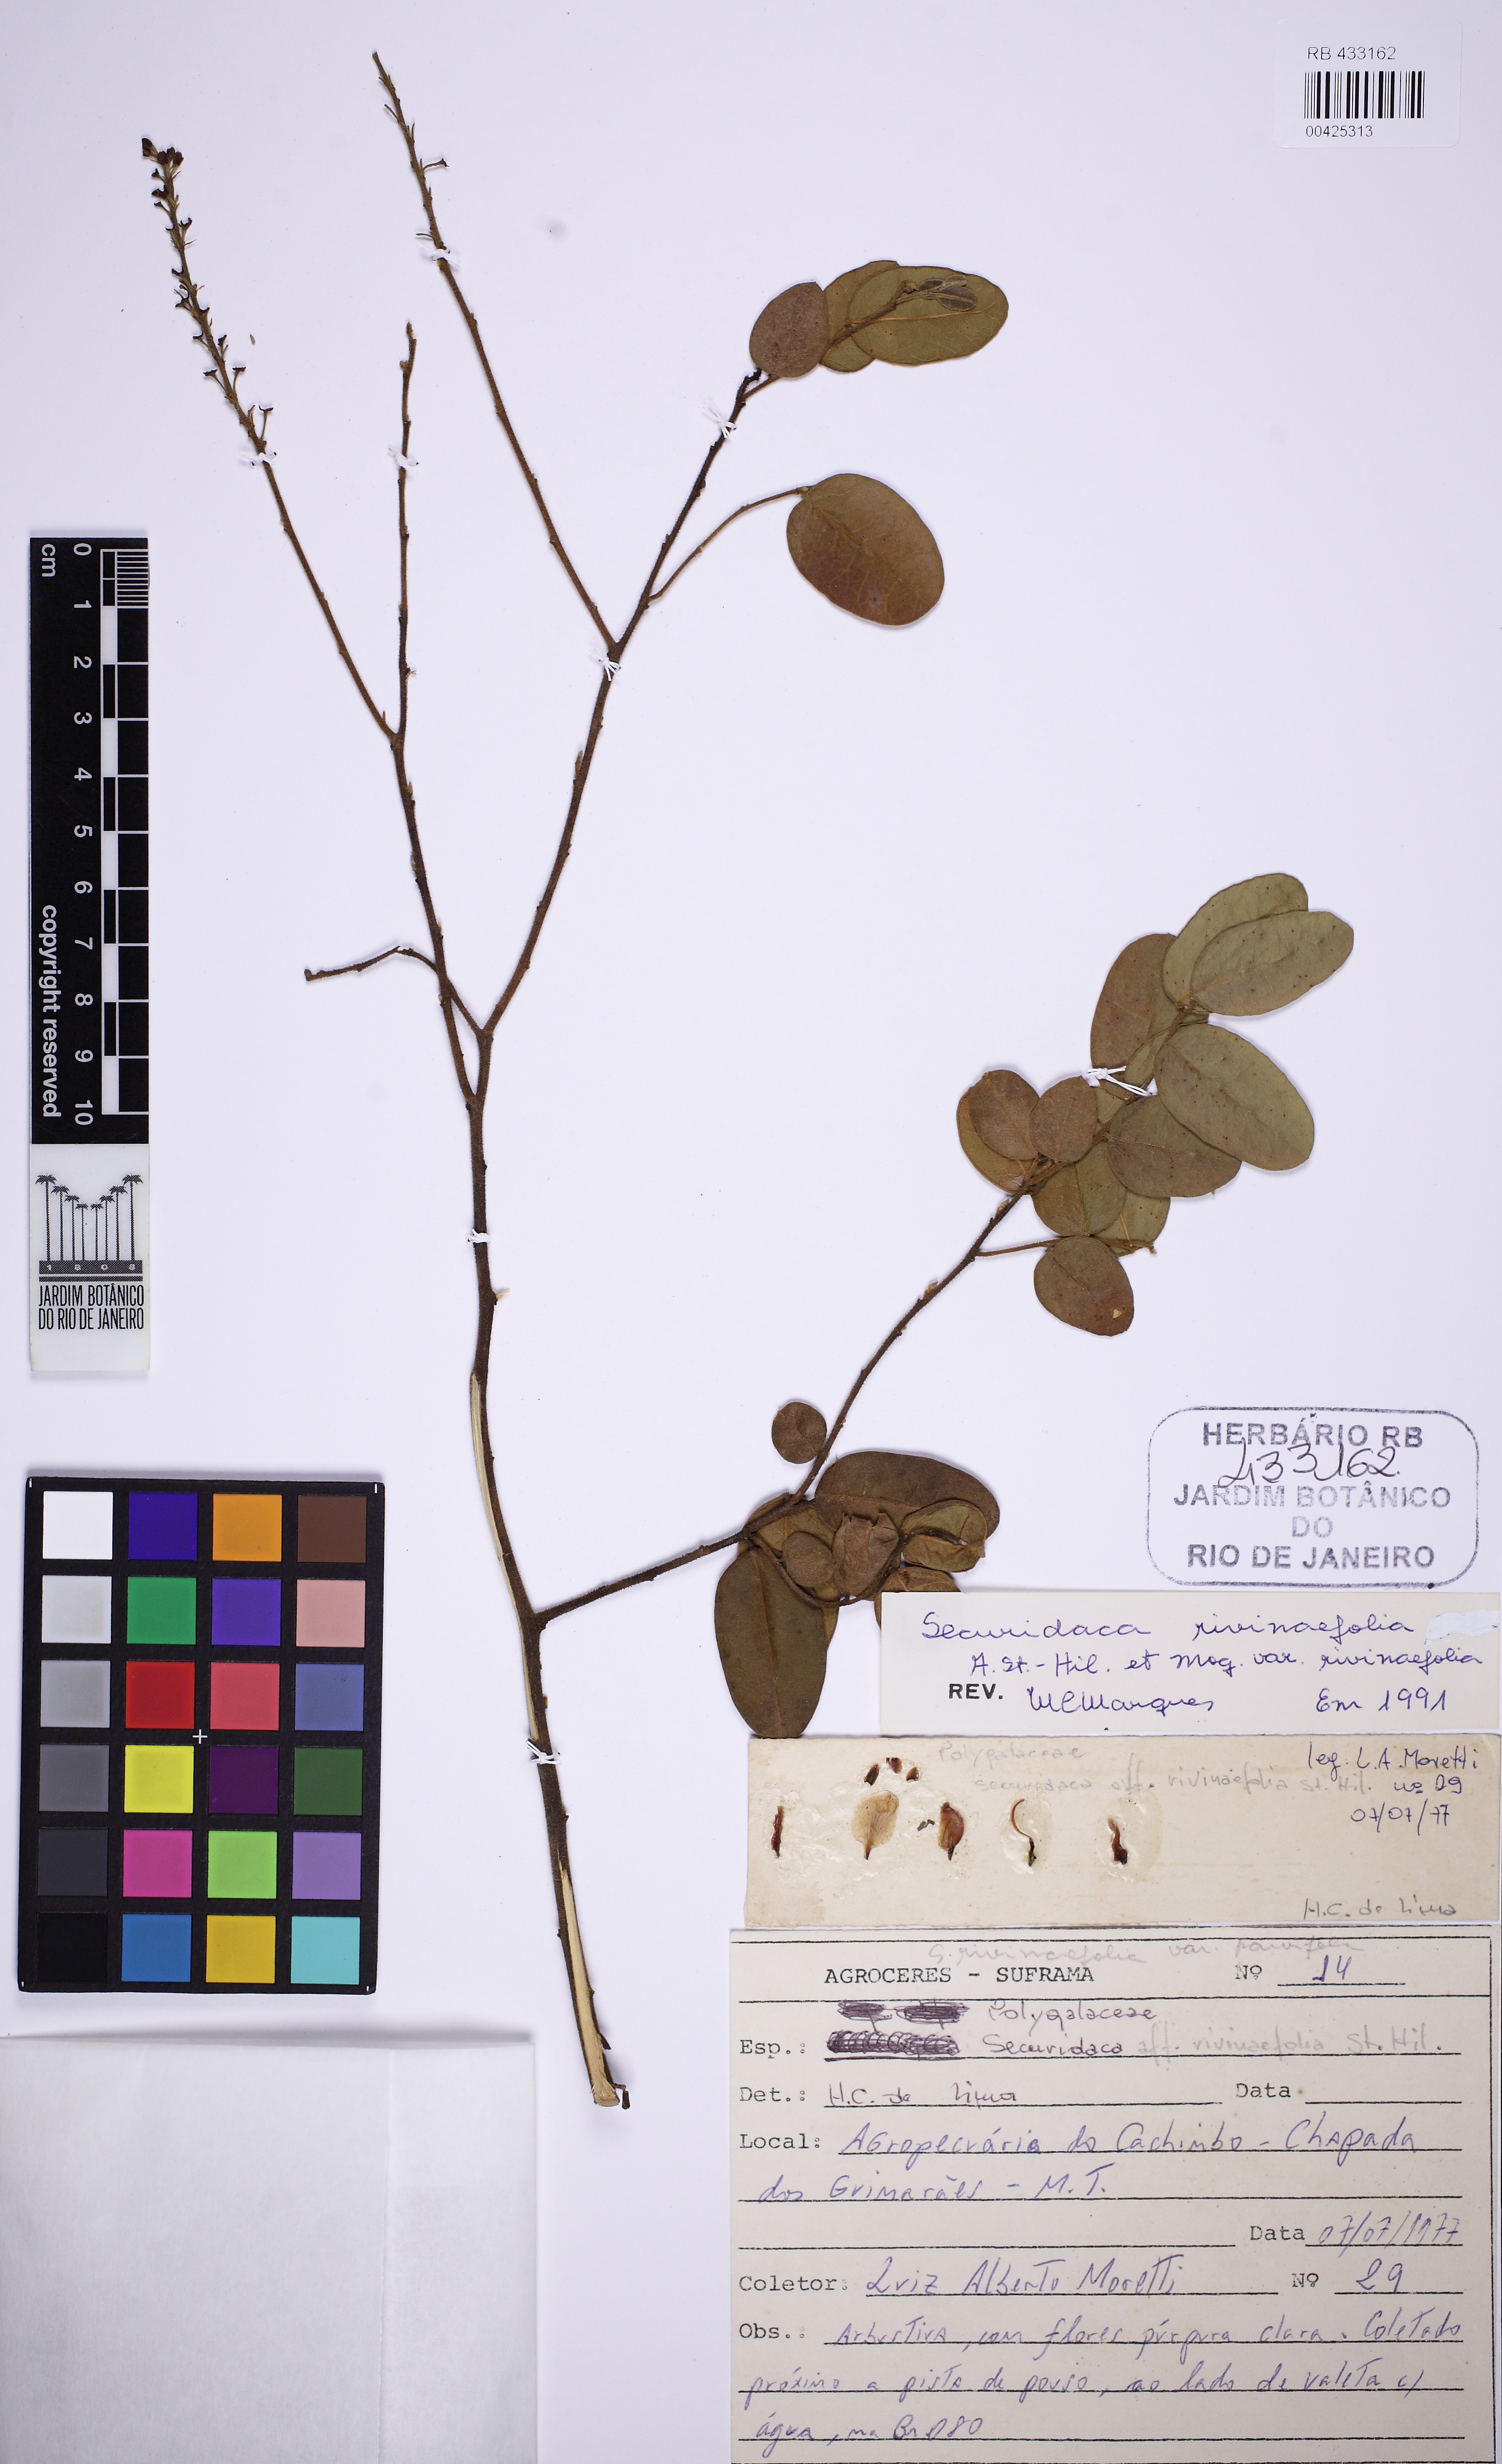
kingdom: Plantae
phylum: Tracheophyta
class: Magnoliopsida
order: Fabales
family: Polygalaceae
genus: Securidaca
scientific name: Securidaca rivinifolia
